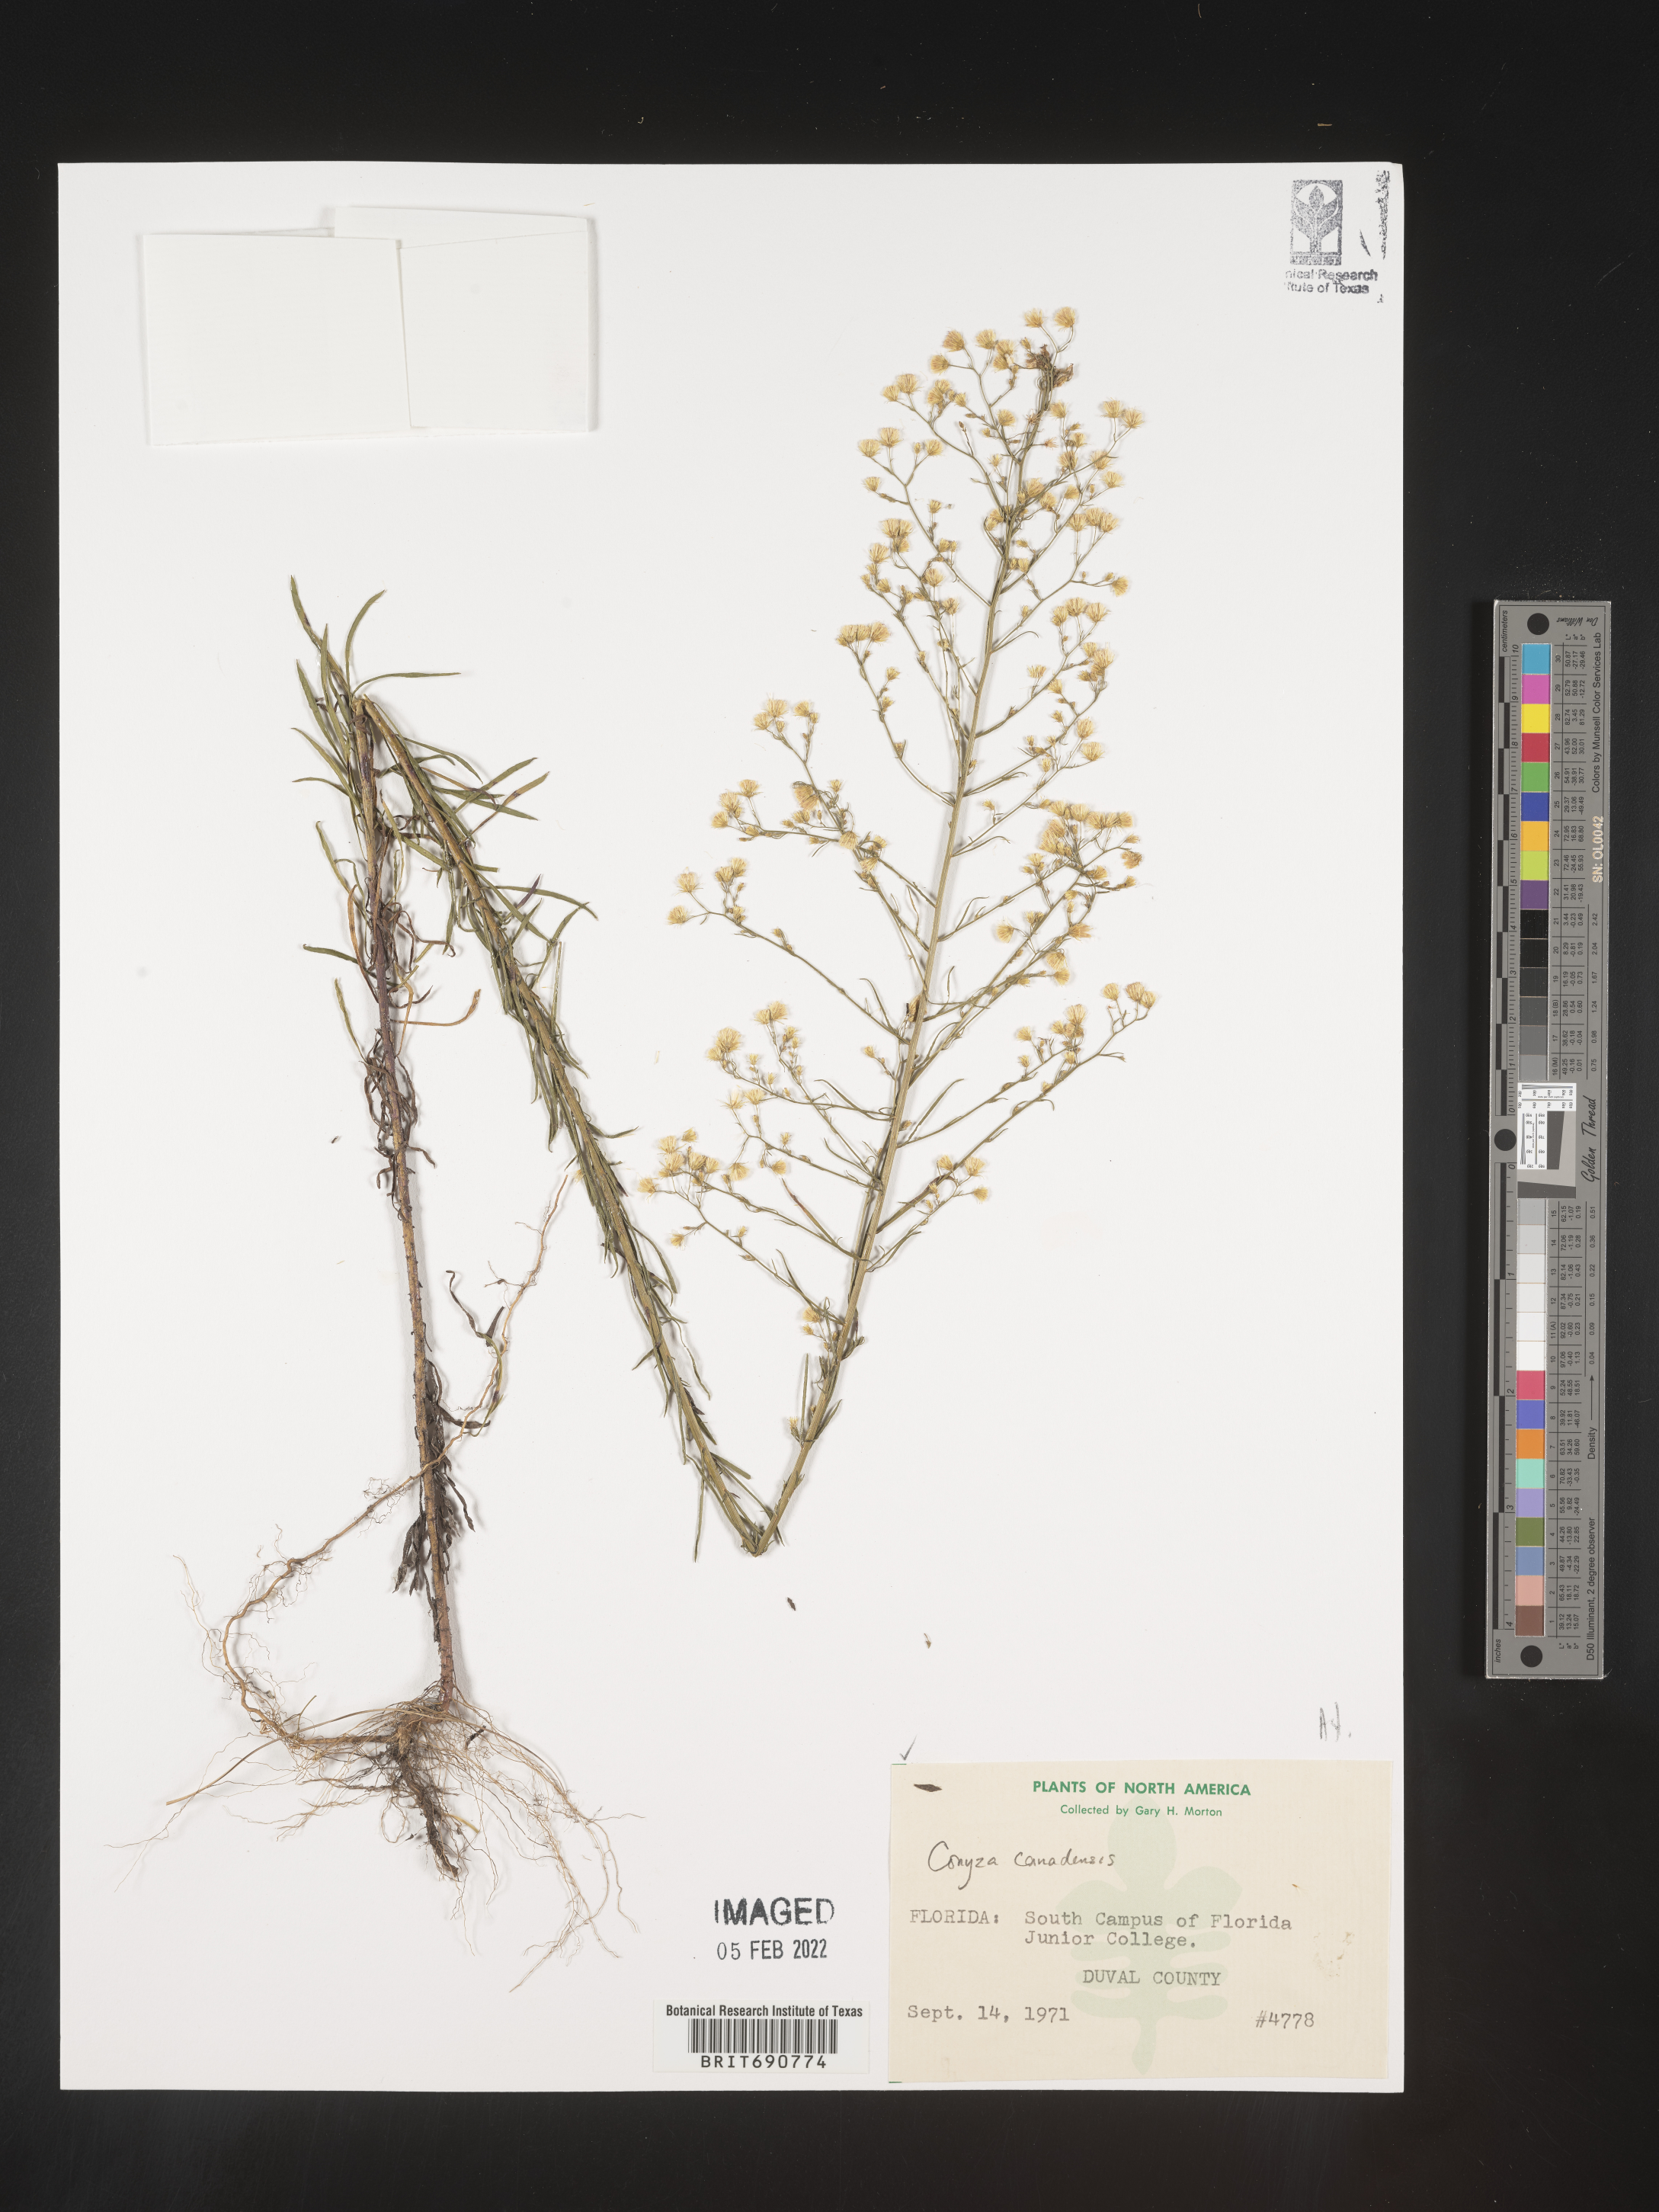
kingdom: Plantae
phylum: Tracheophyta
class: Magnoliopsida
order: Asterales
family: Asteraceae
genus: Erigeron
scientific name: Erigeron canadensis
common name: Canadian fleabane
